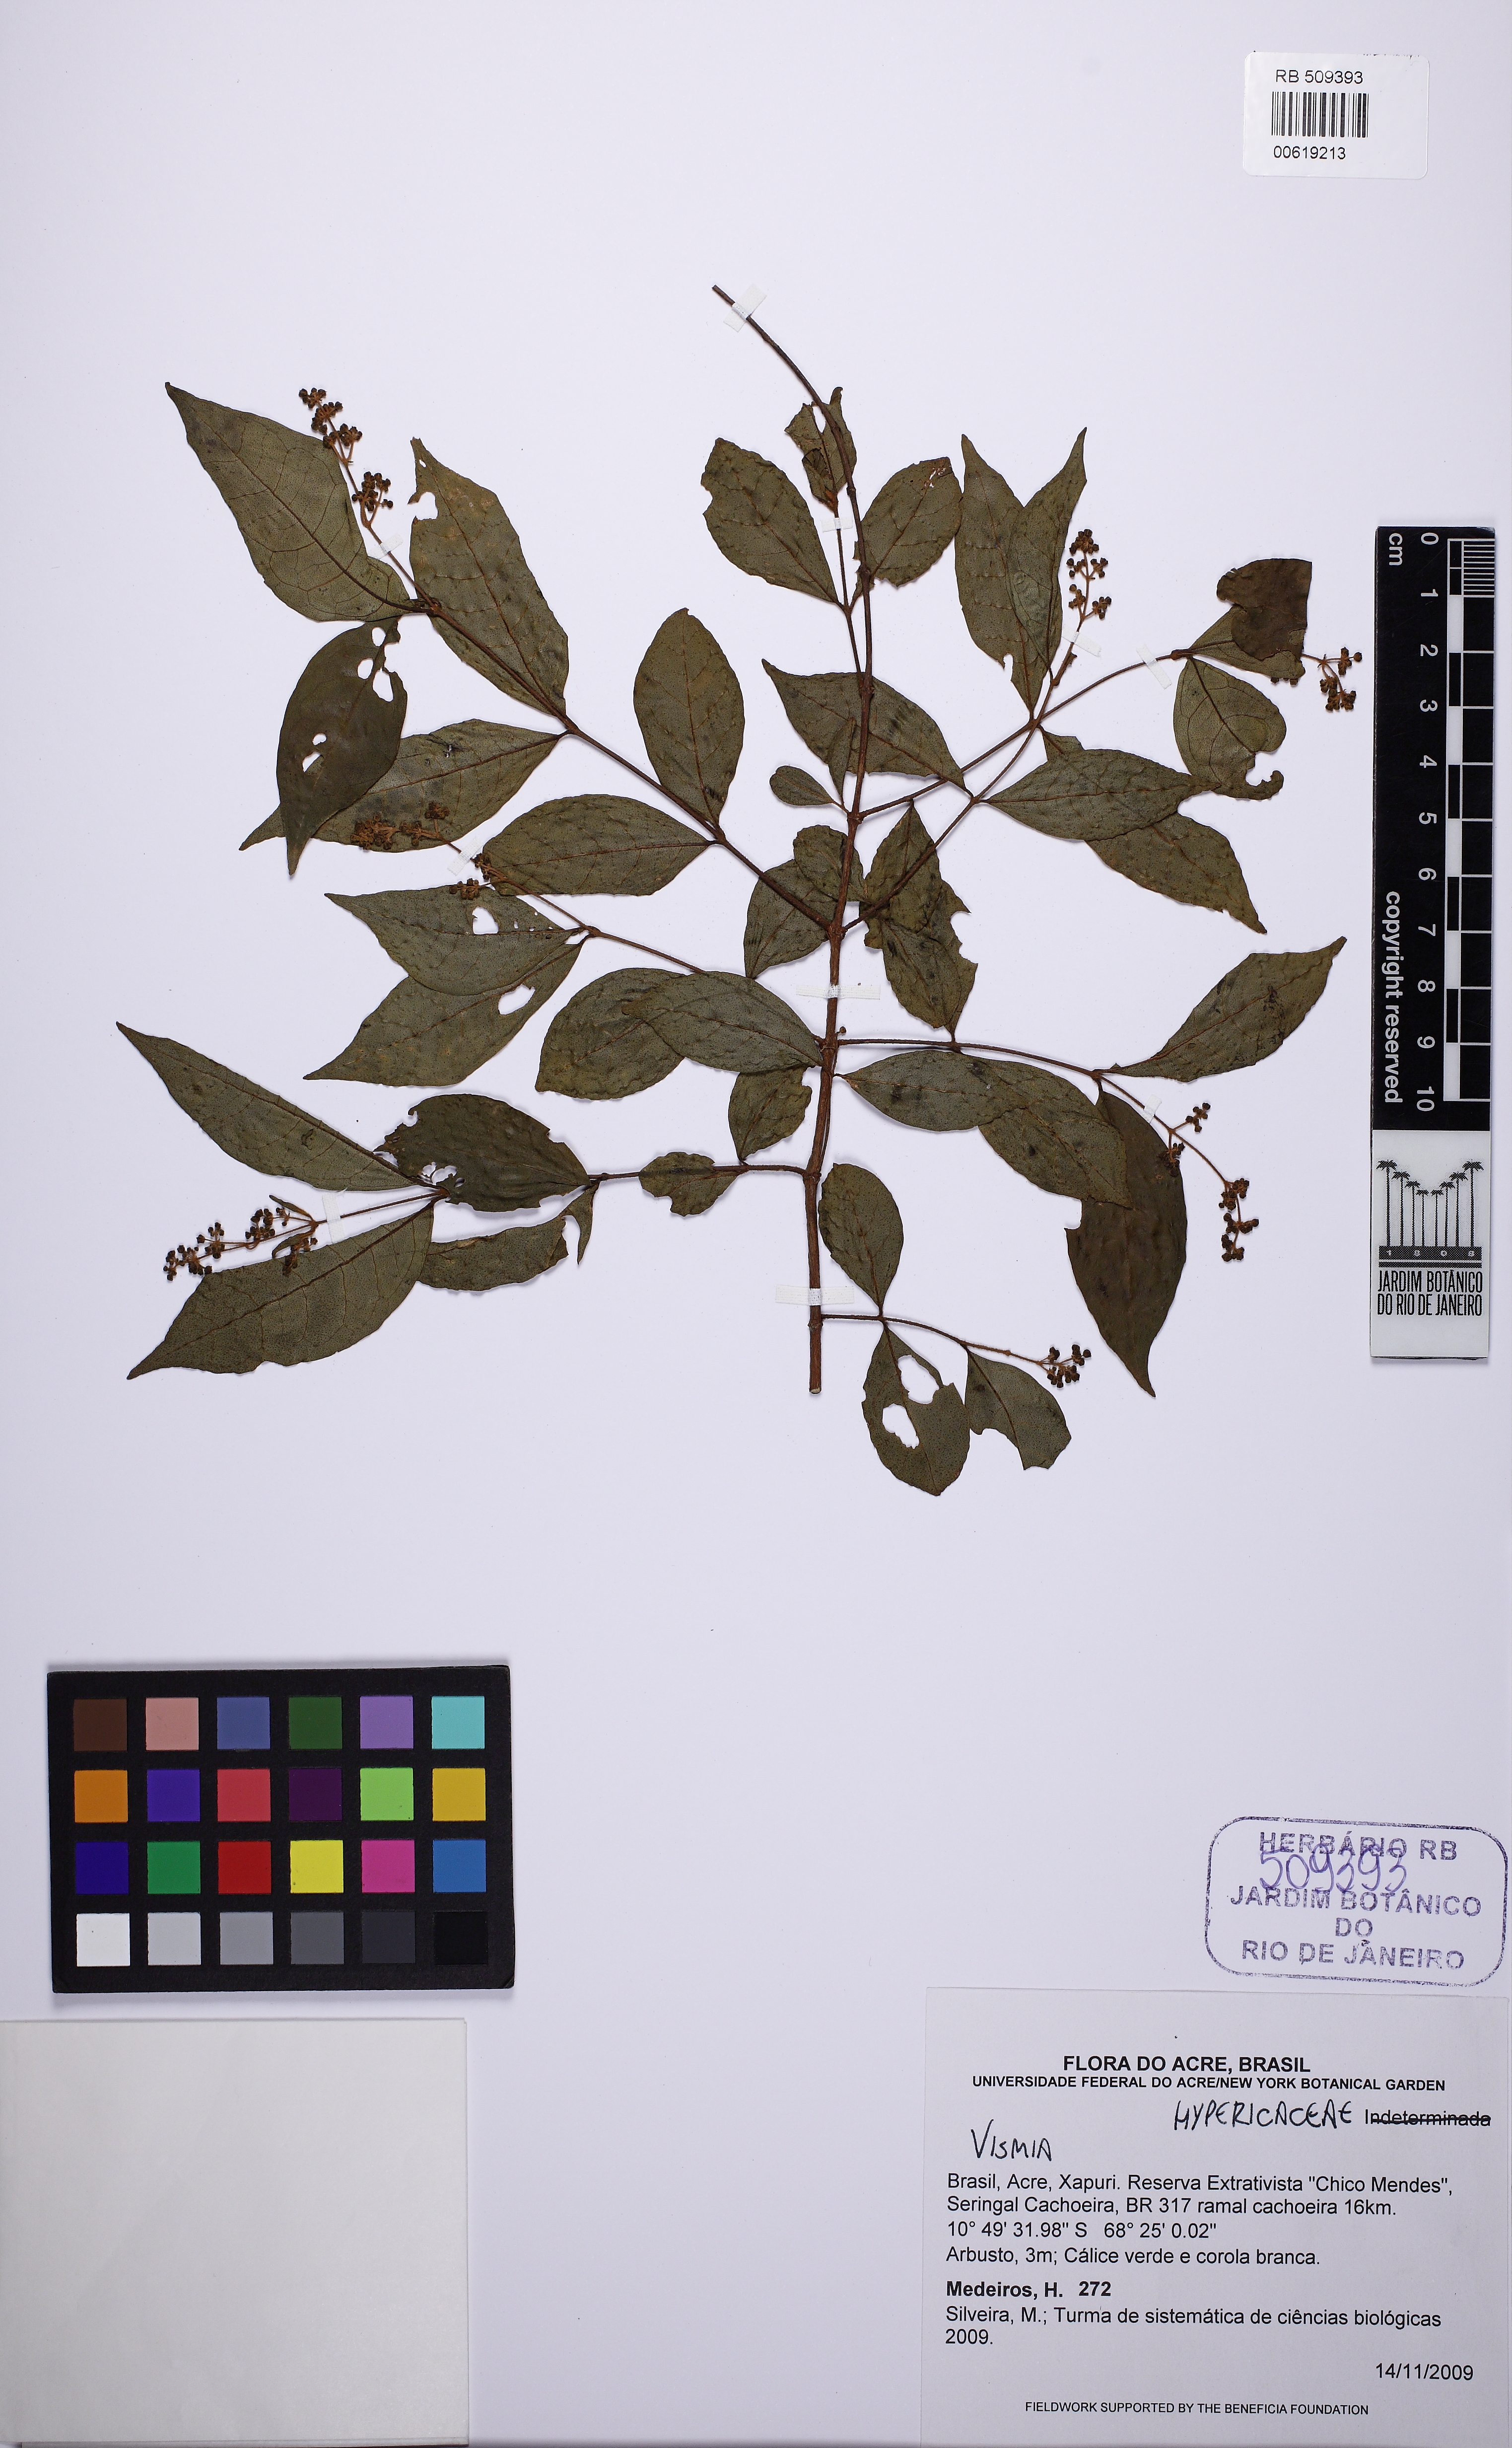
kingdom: Plantae
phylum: Tracheophyta
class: Magnoliopsida
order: Malpighiales
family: Hypericaceae
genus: Vismia
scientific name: Vismia cavalcantei
